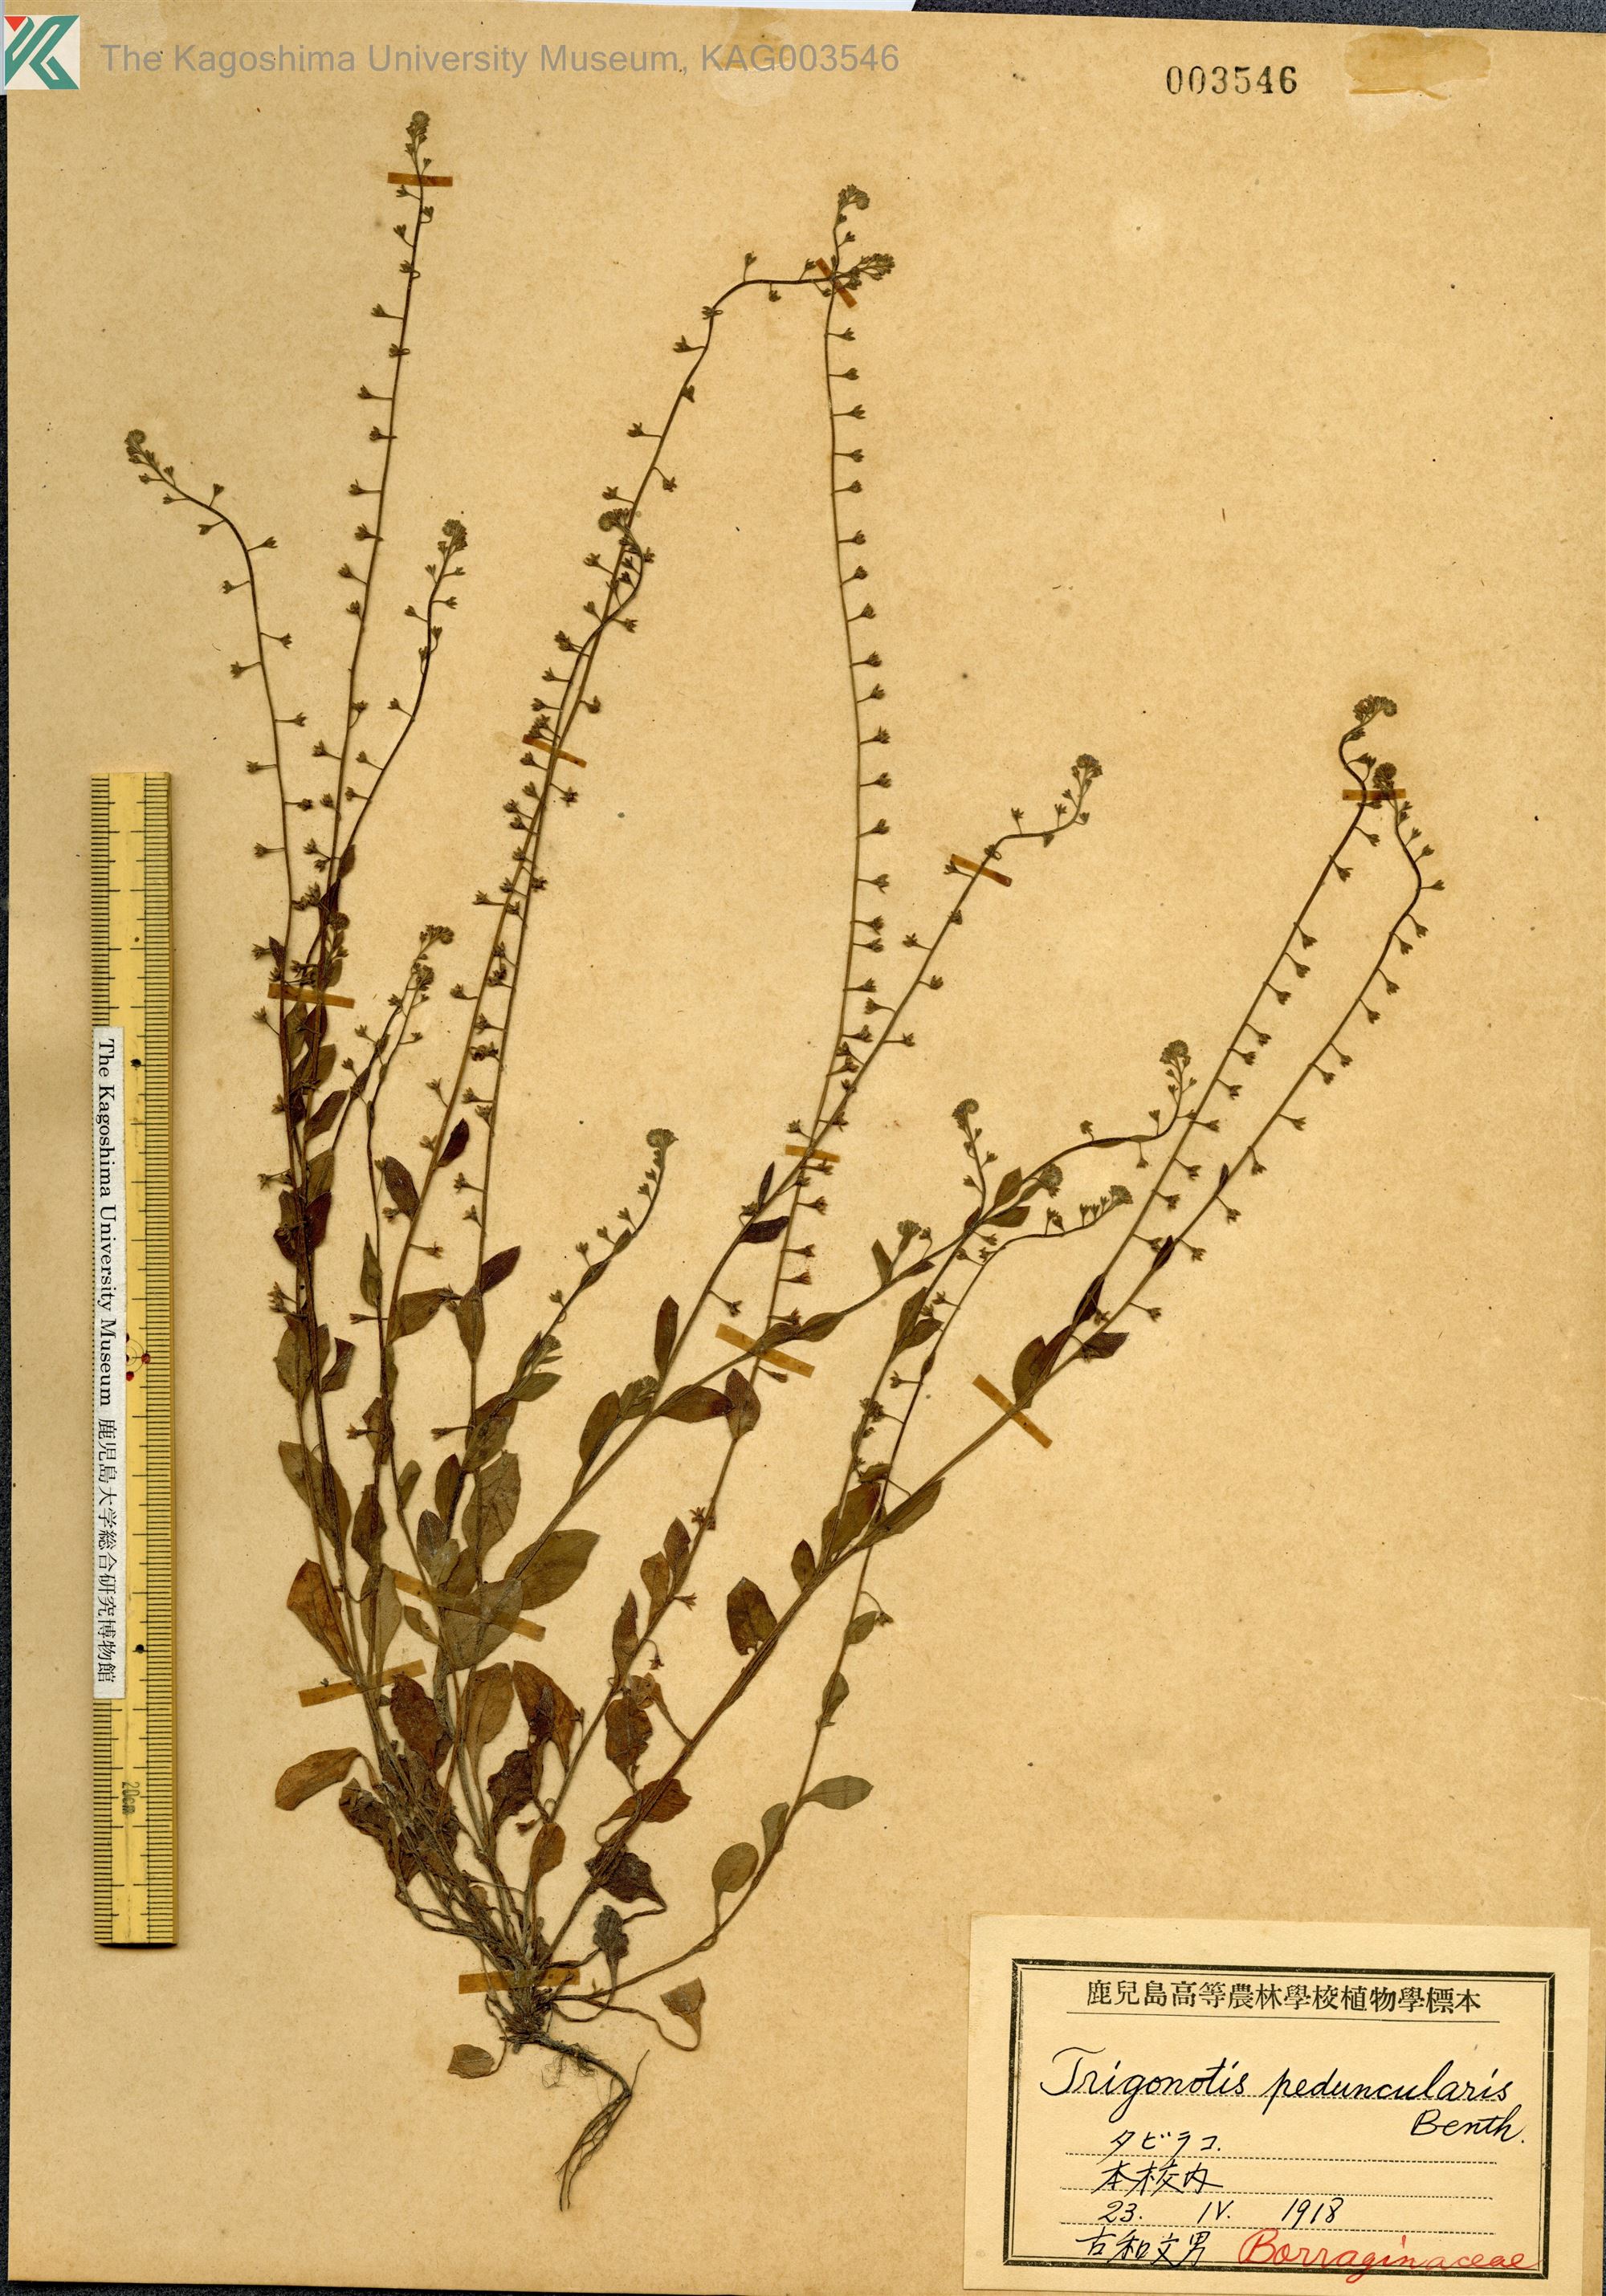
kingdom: Plantae
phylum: Tracheophyta
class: Magnoliopsida
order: Boraginales
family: Boraginaceae
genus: Trigonotis
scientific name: Trigonotis peduncularis
